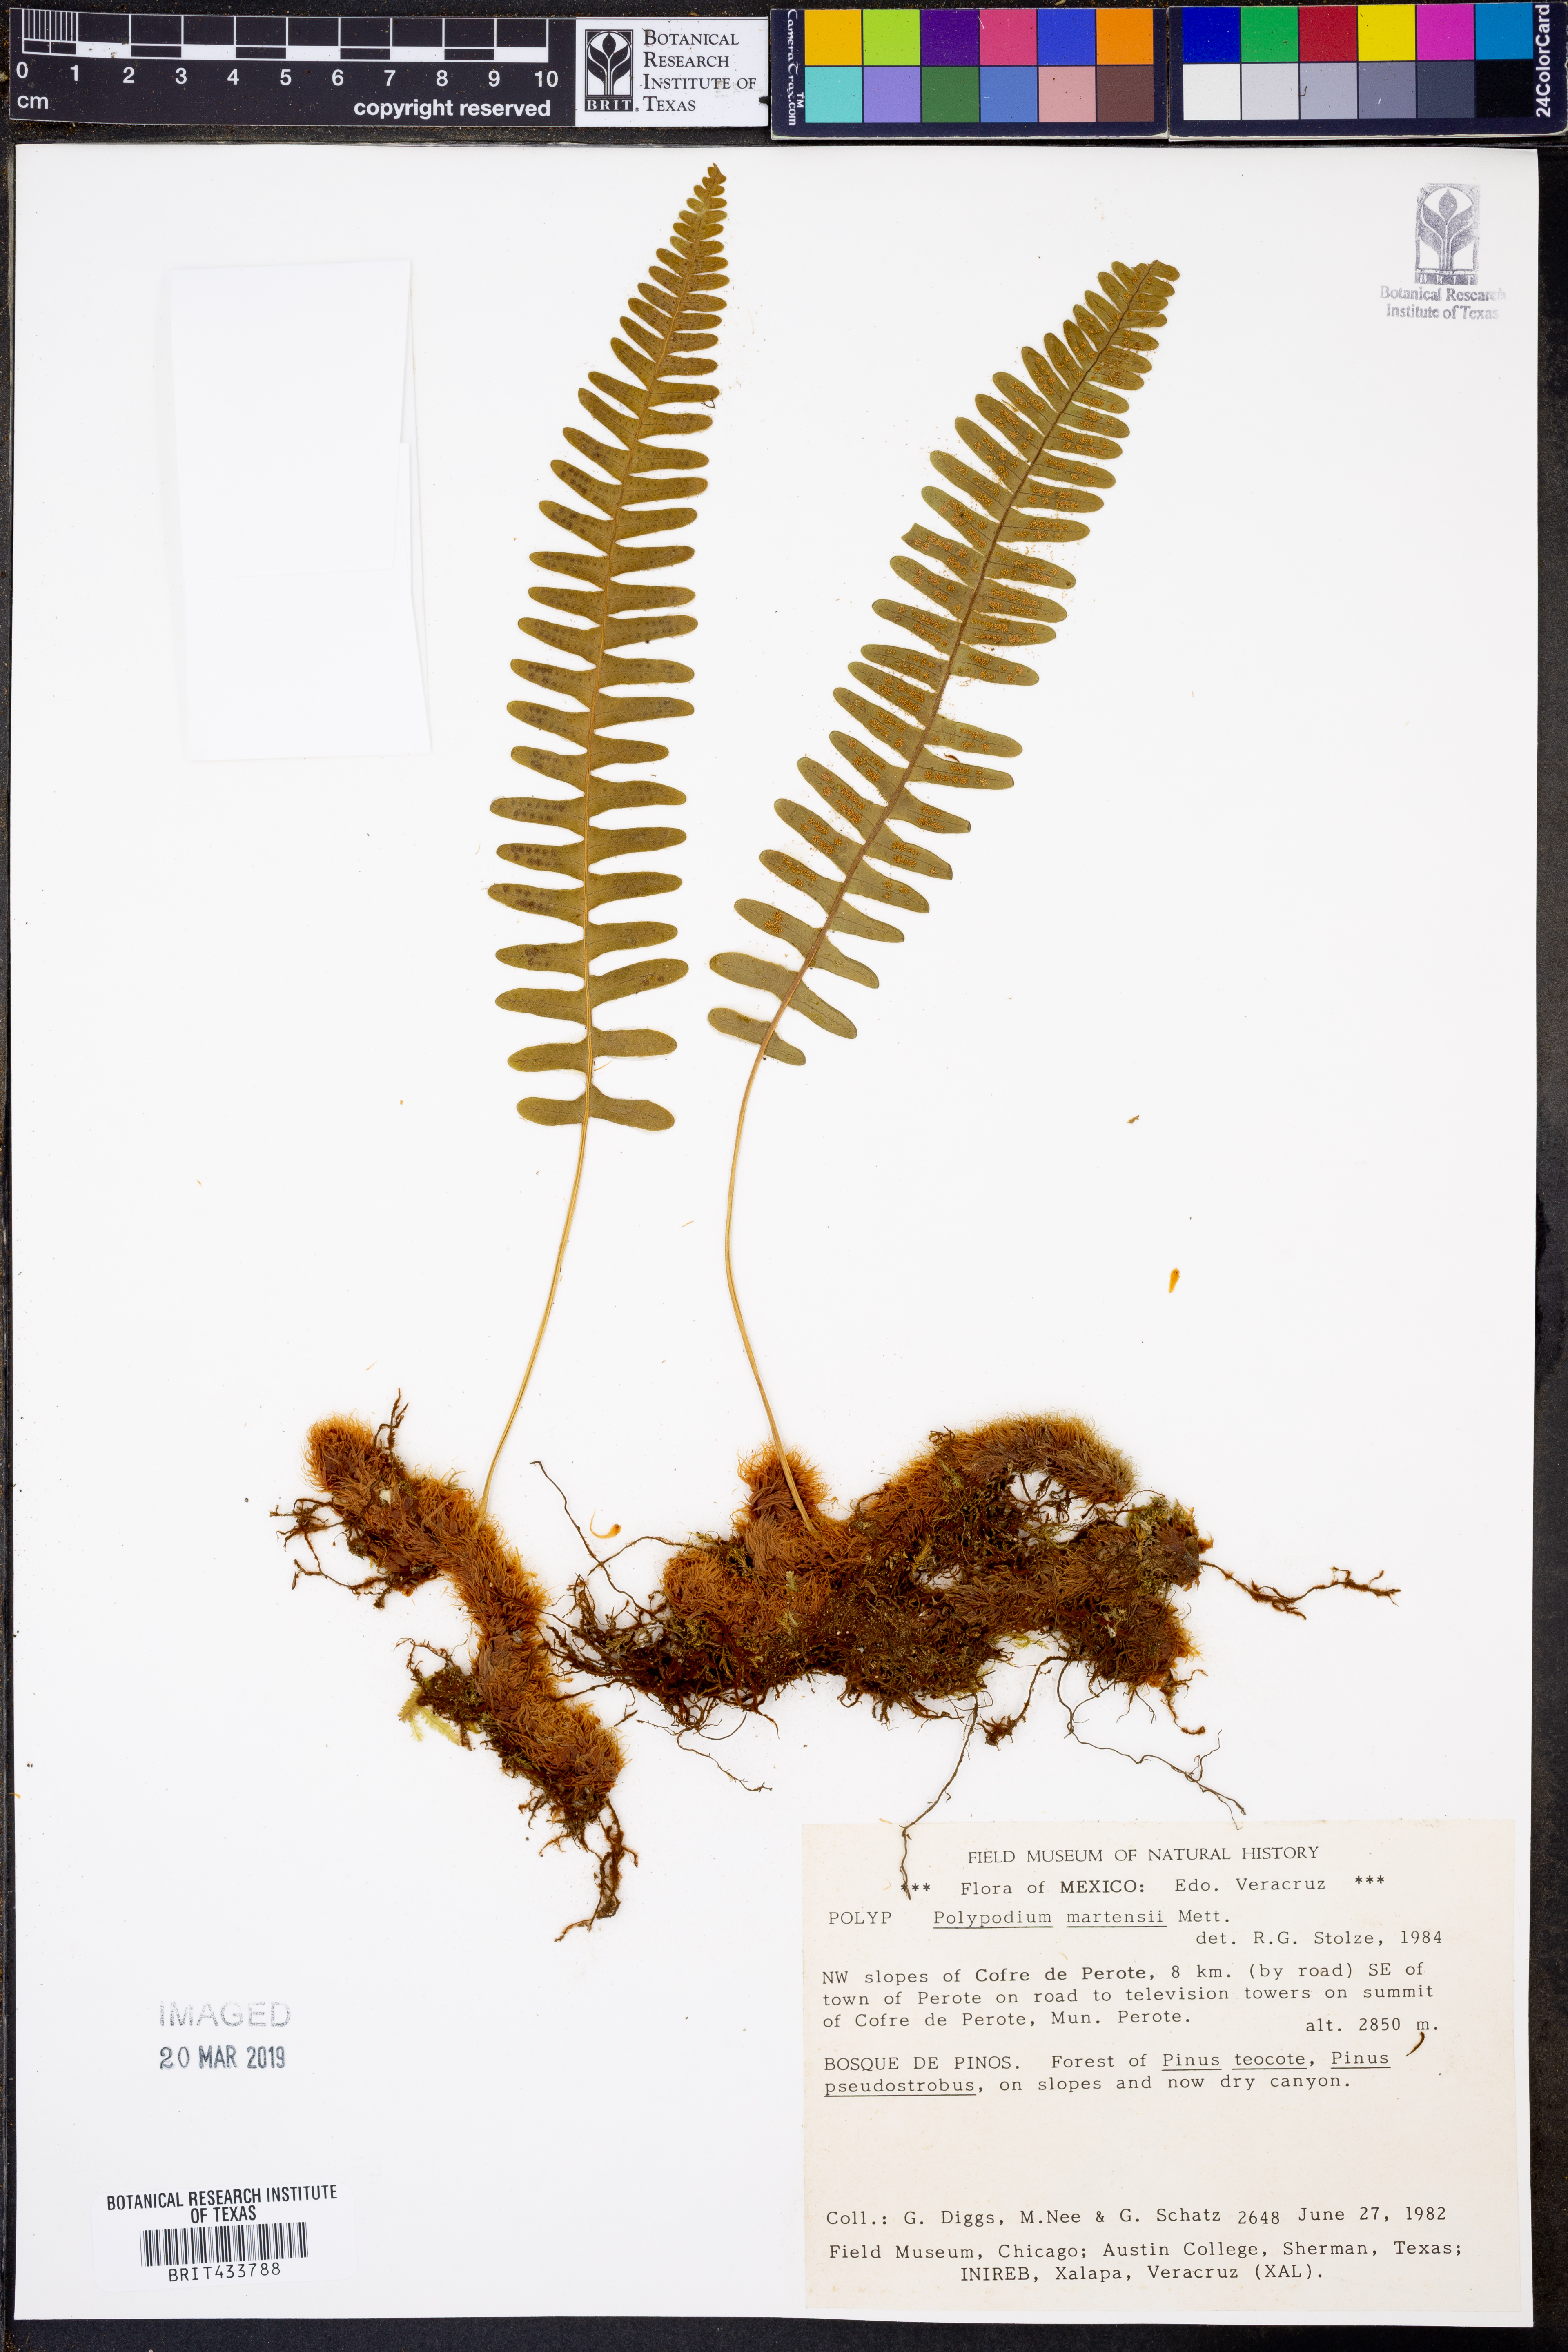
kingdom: Plantae
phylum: Tracheophyta
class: Polypodiopsida
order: Polypodiales
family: Polypodiaceae
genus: Polypodium
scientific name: Polypodium martensii
